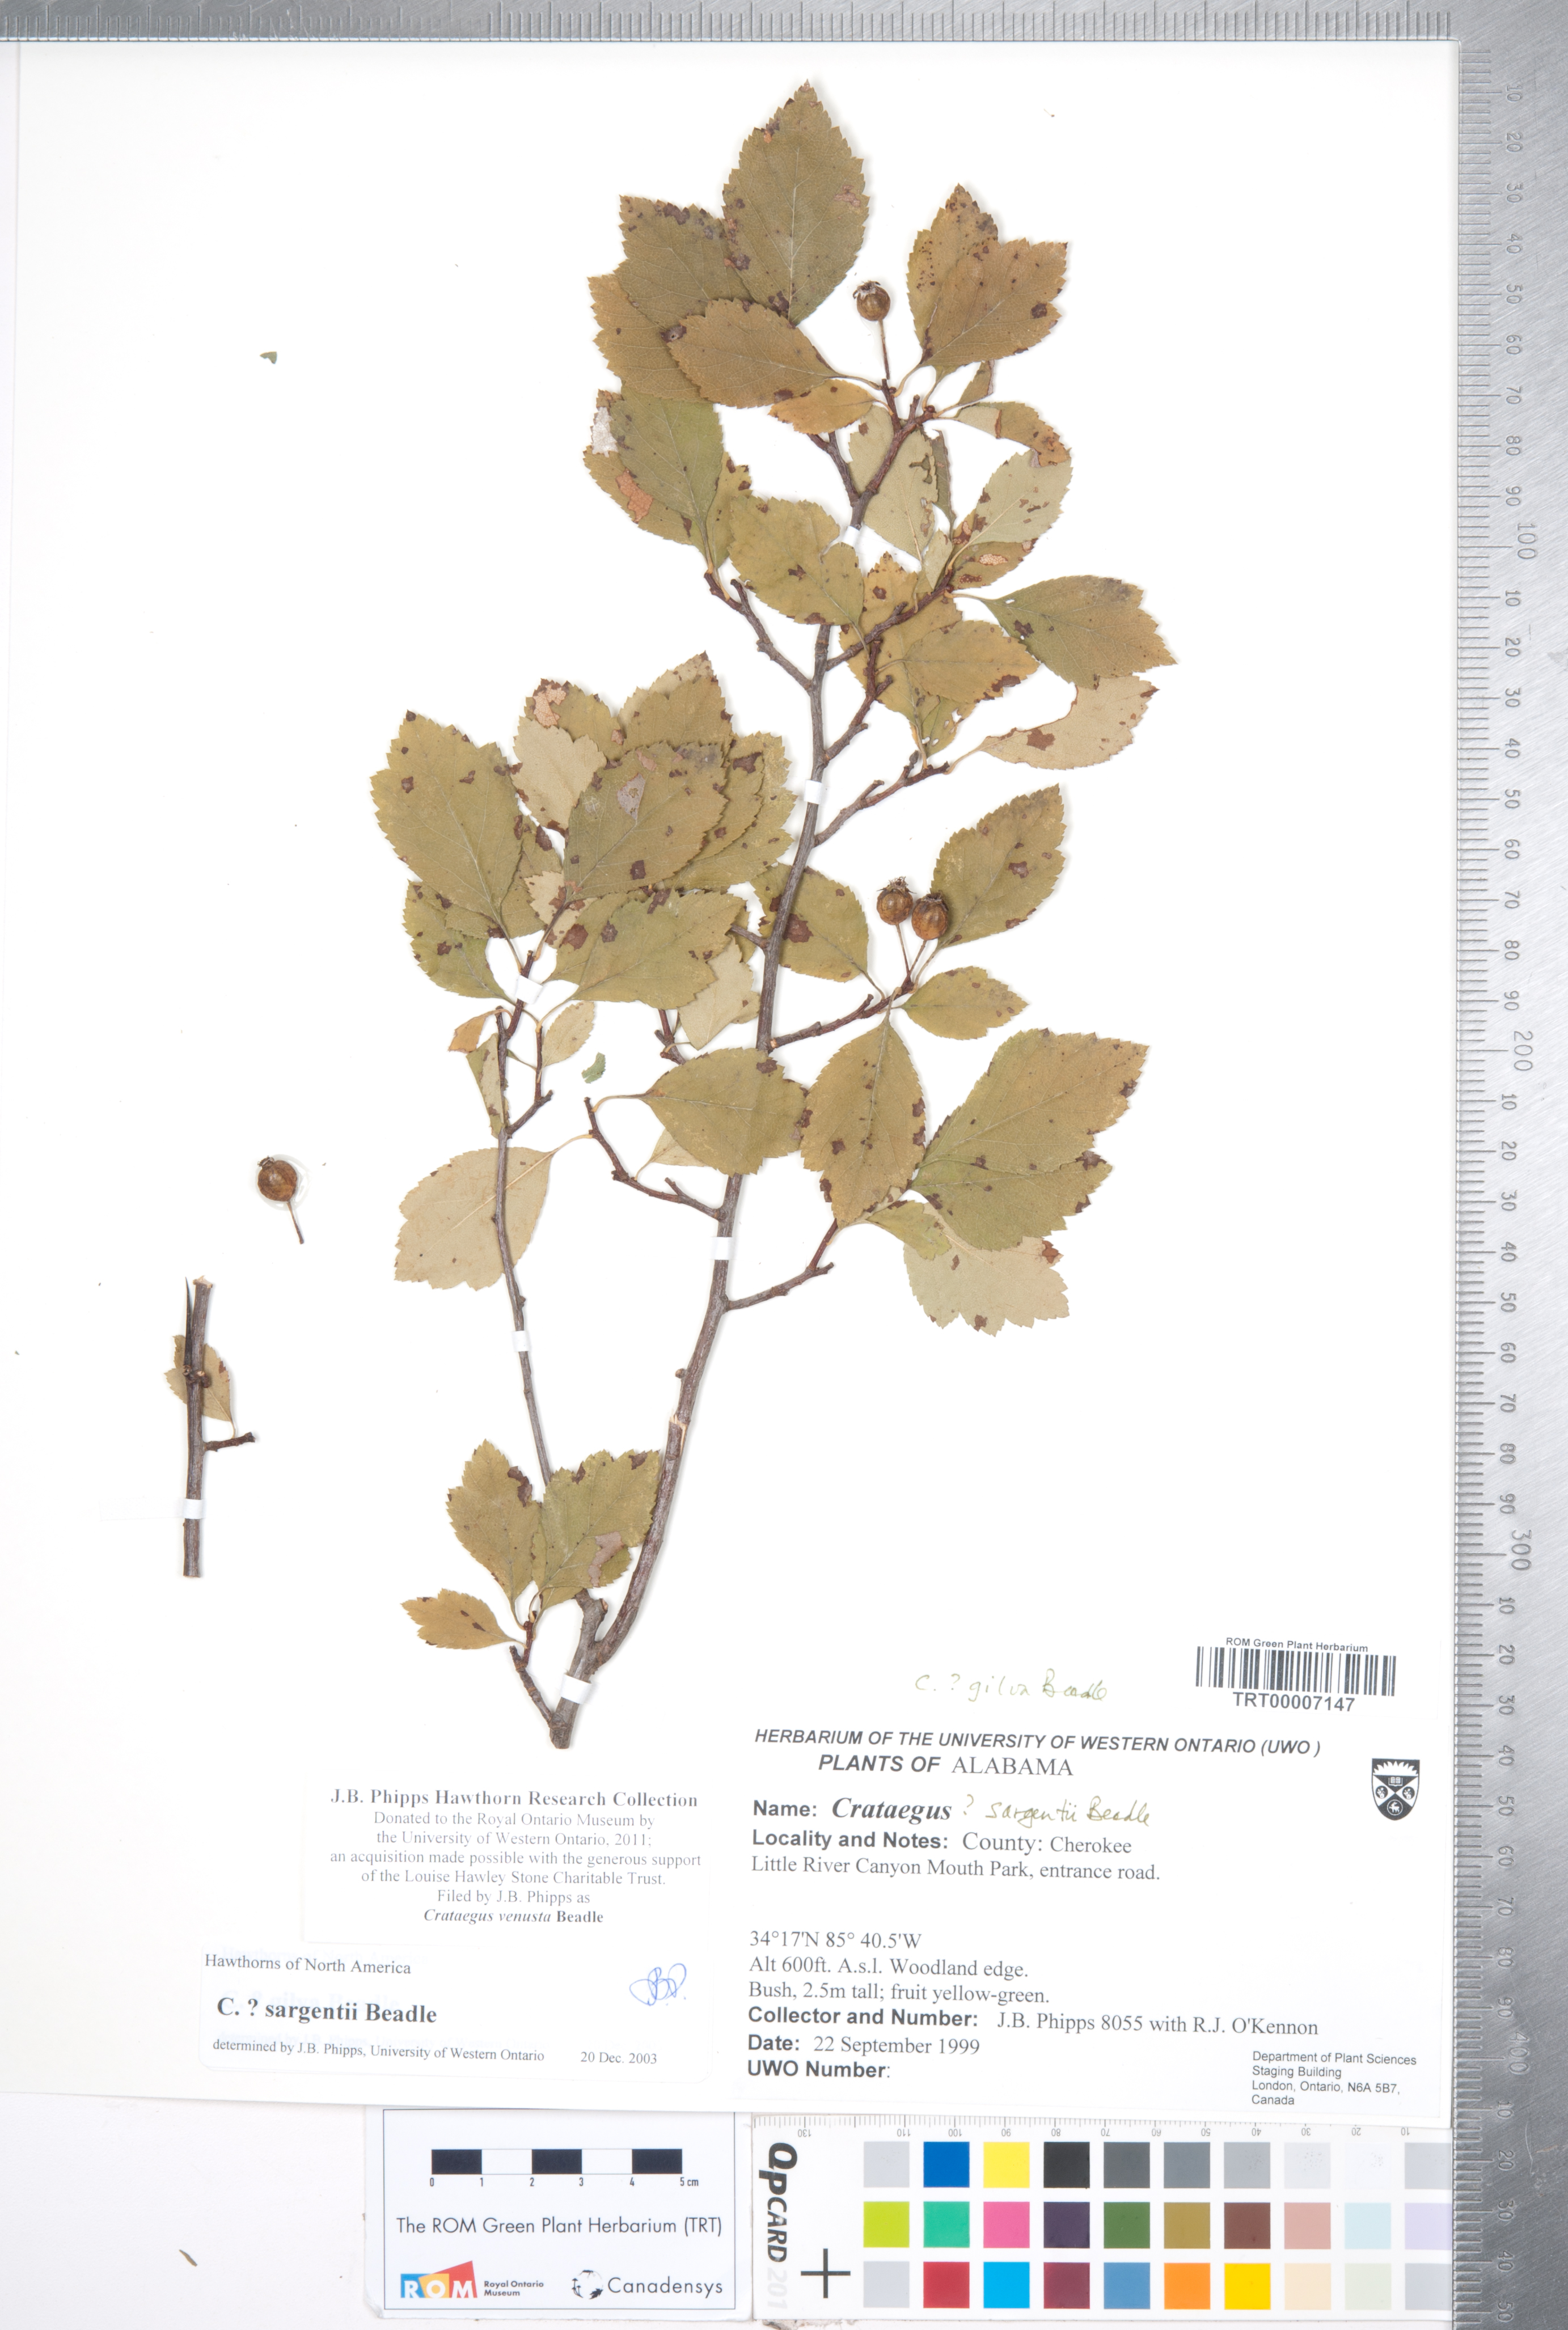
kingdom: Plantae
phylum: Tracheophyta
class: Magnoliopsida
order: Rosales
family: Rosaceae
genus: Crataegus
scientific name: Crataegus venusta
